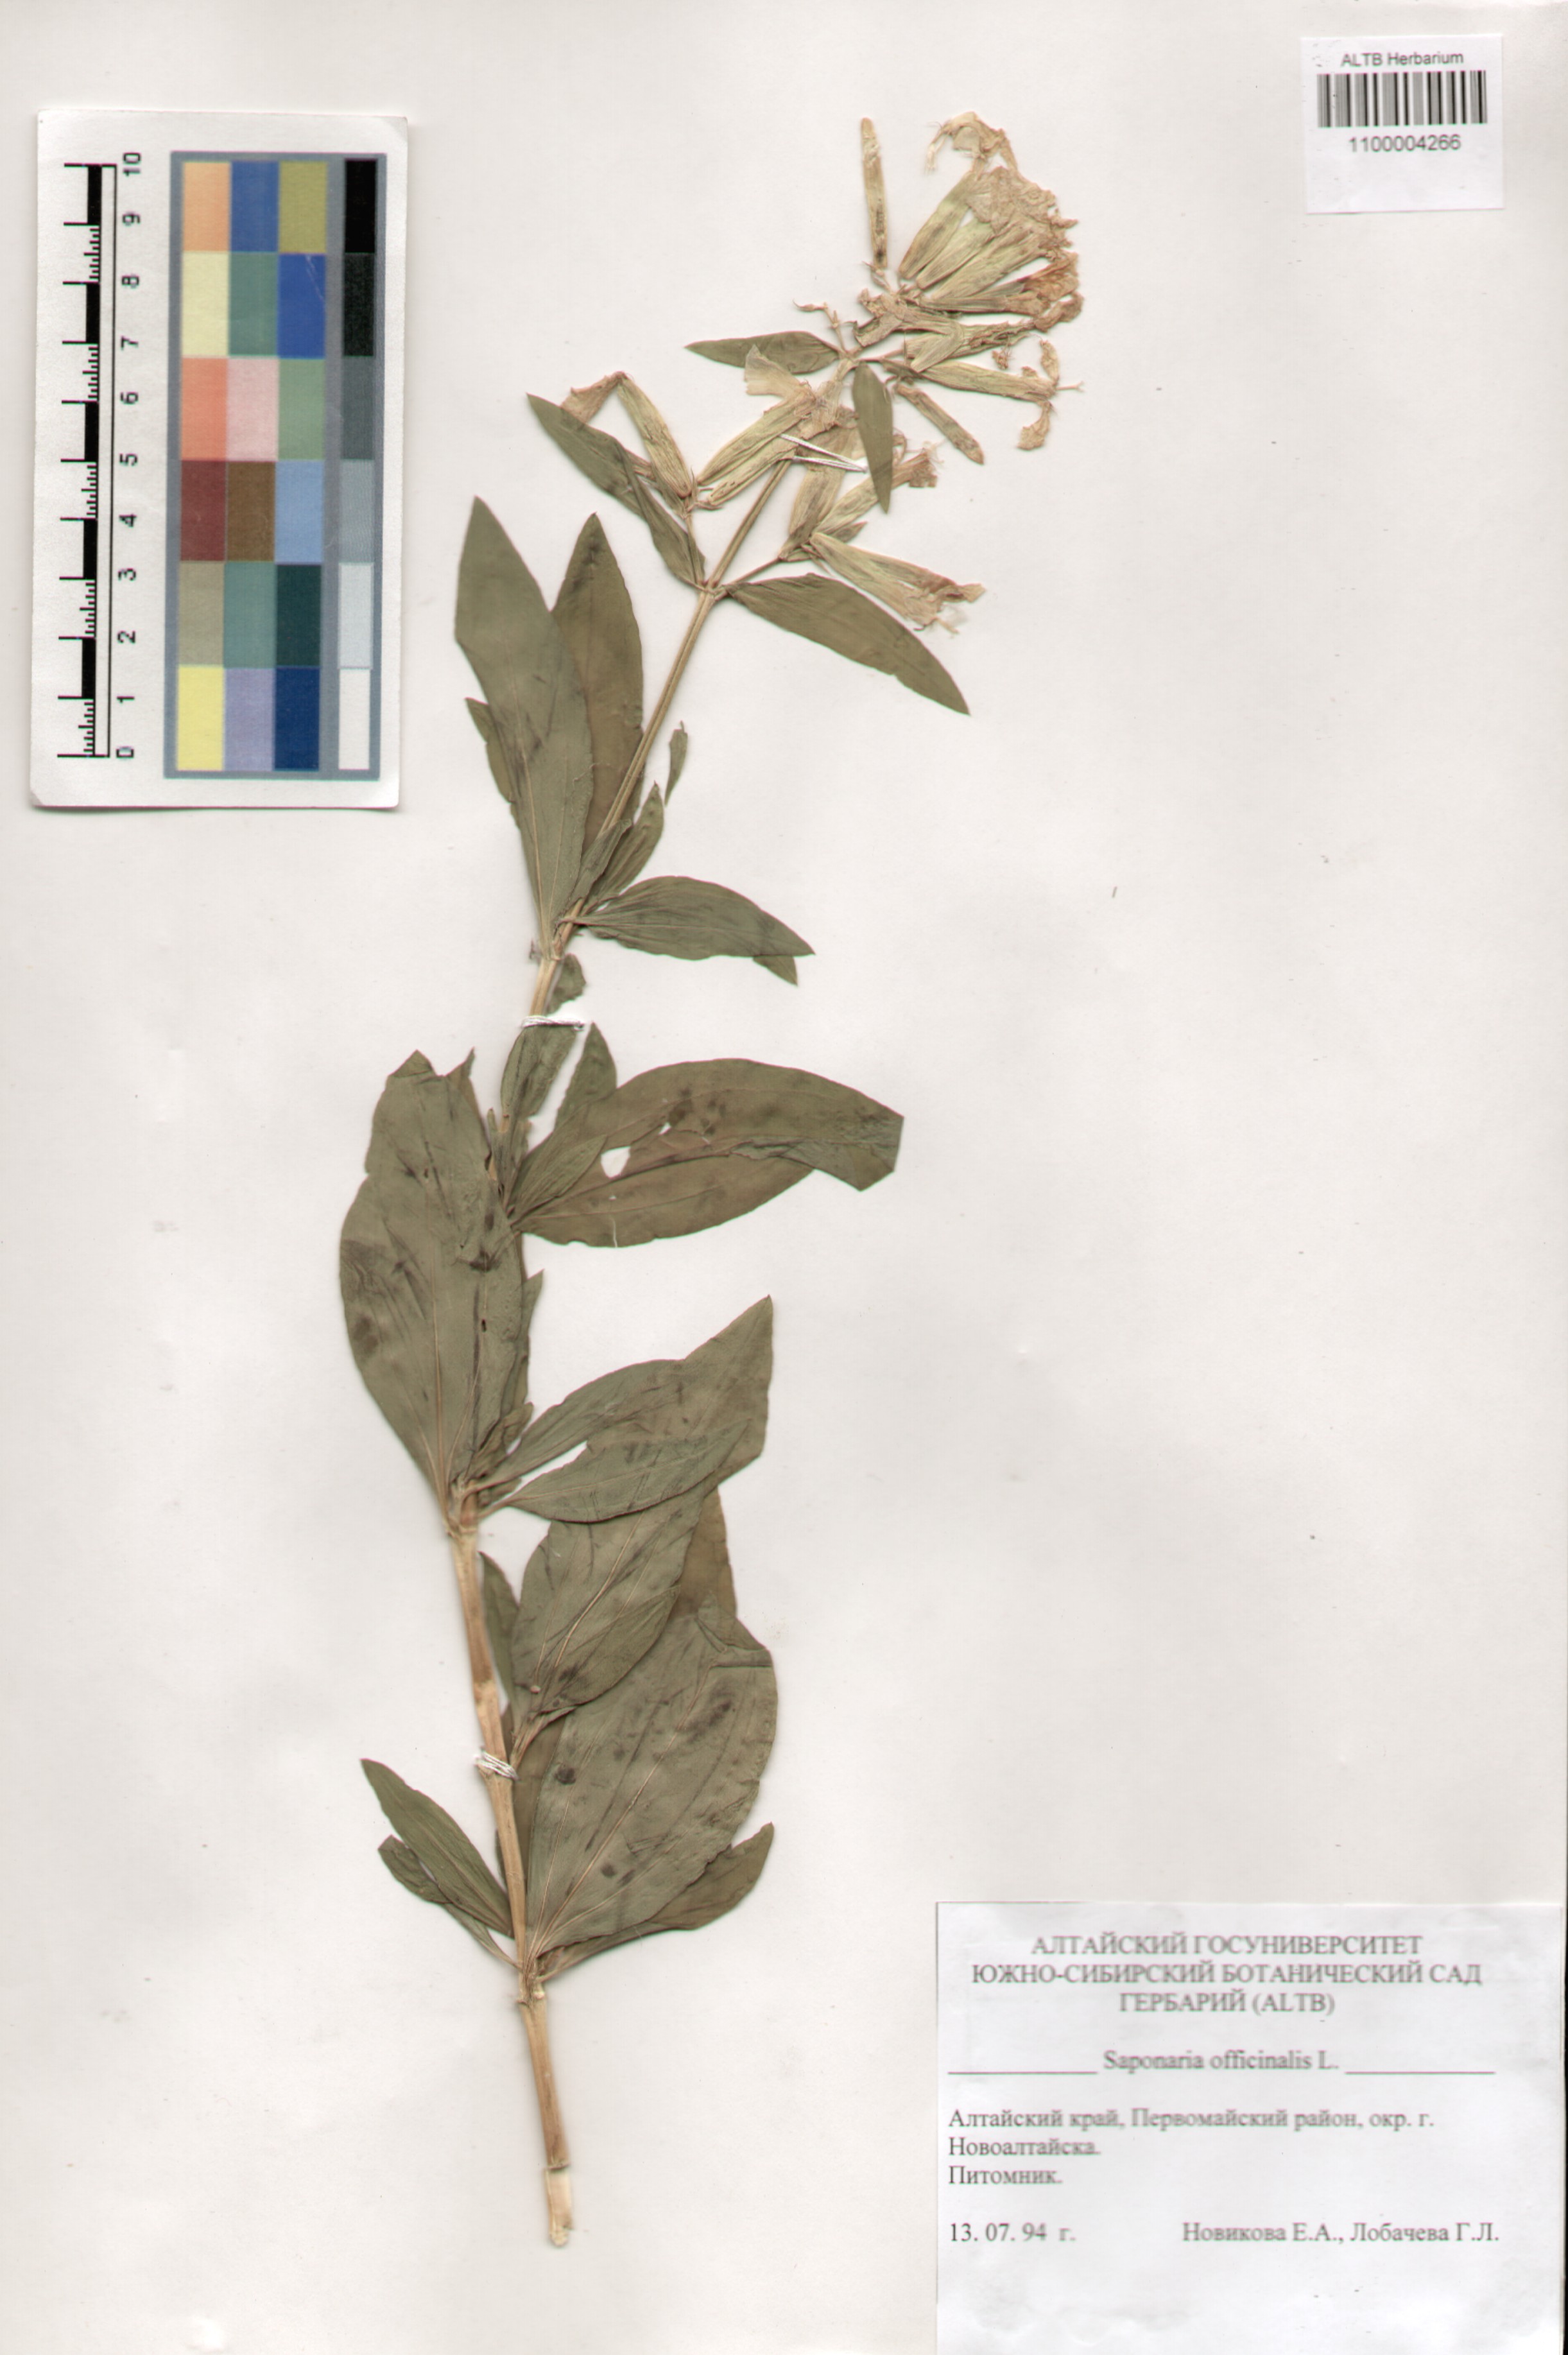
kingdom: Plantae
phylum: Tracheophyta
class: Magnoliopsida
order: Caryophyllales
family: Caryophyllaceae
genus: Saponaria
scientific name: Saponaria officinalis
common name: Soapwort
